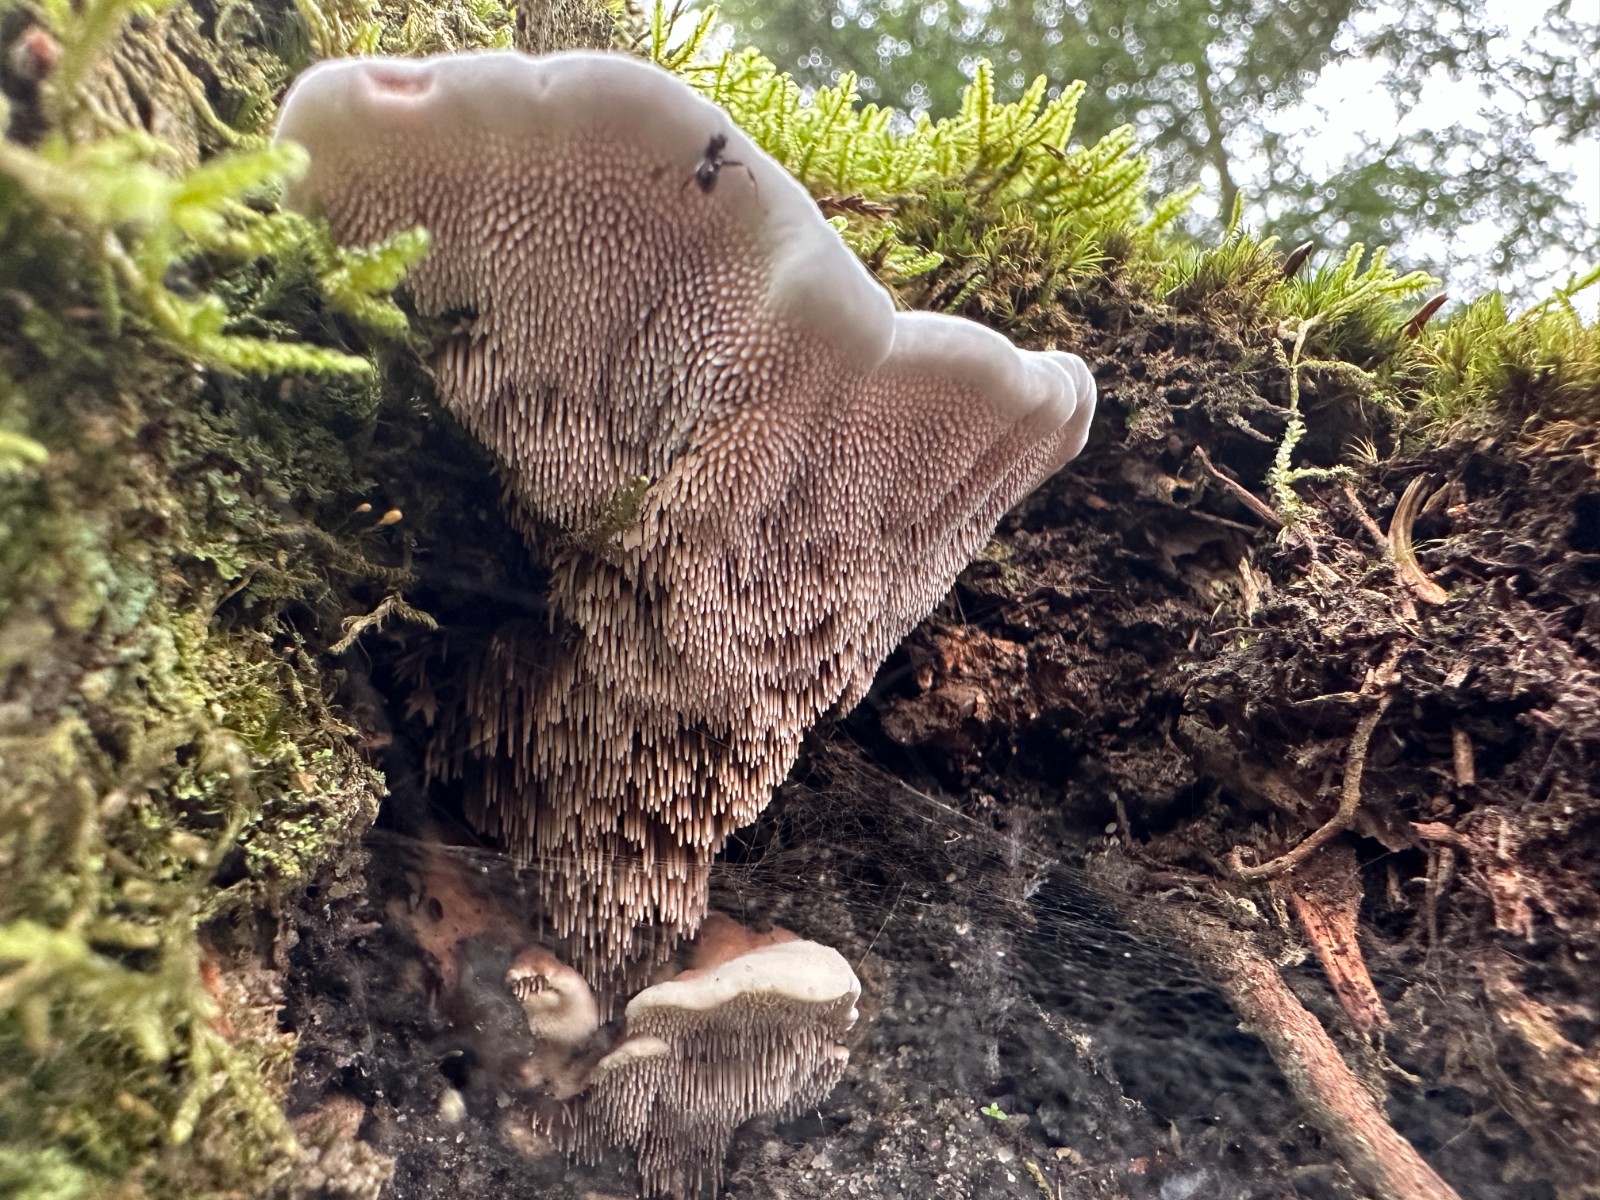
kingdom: Fungi
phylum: Basidiomycota
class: Agaricomycetes
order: Thelephorales
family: Bankeraceae
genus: Hydnellum
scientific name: Hydnellum caeruleum
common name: blålig korkpigsvamp
